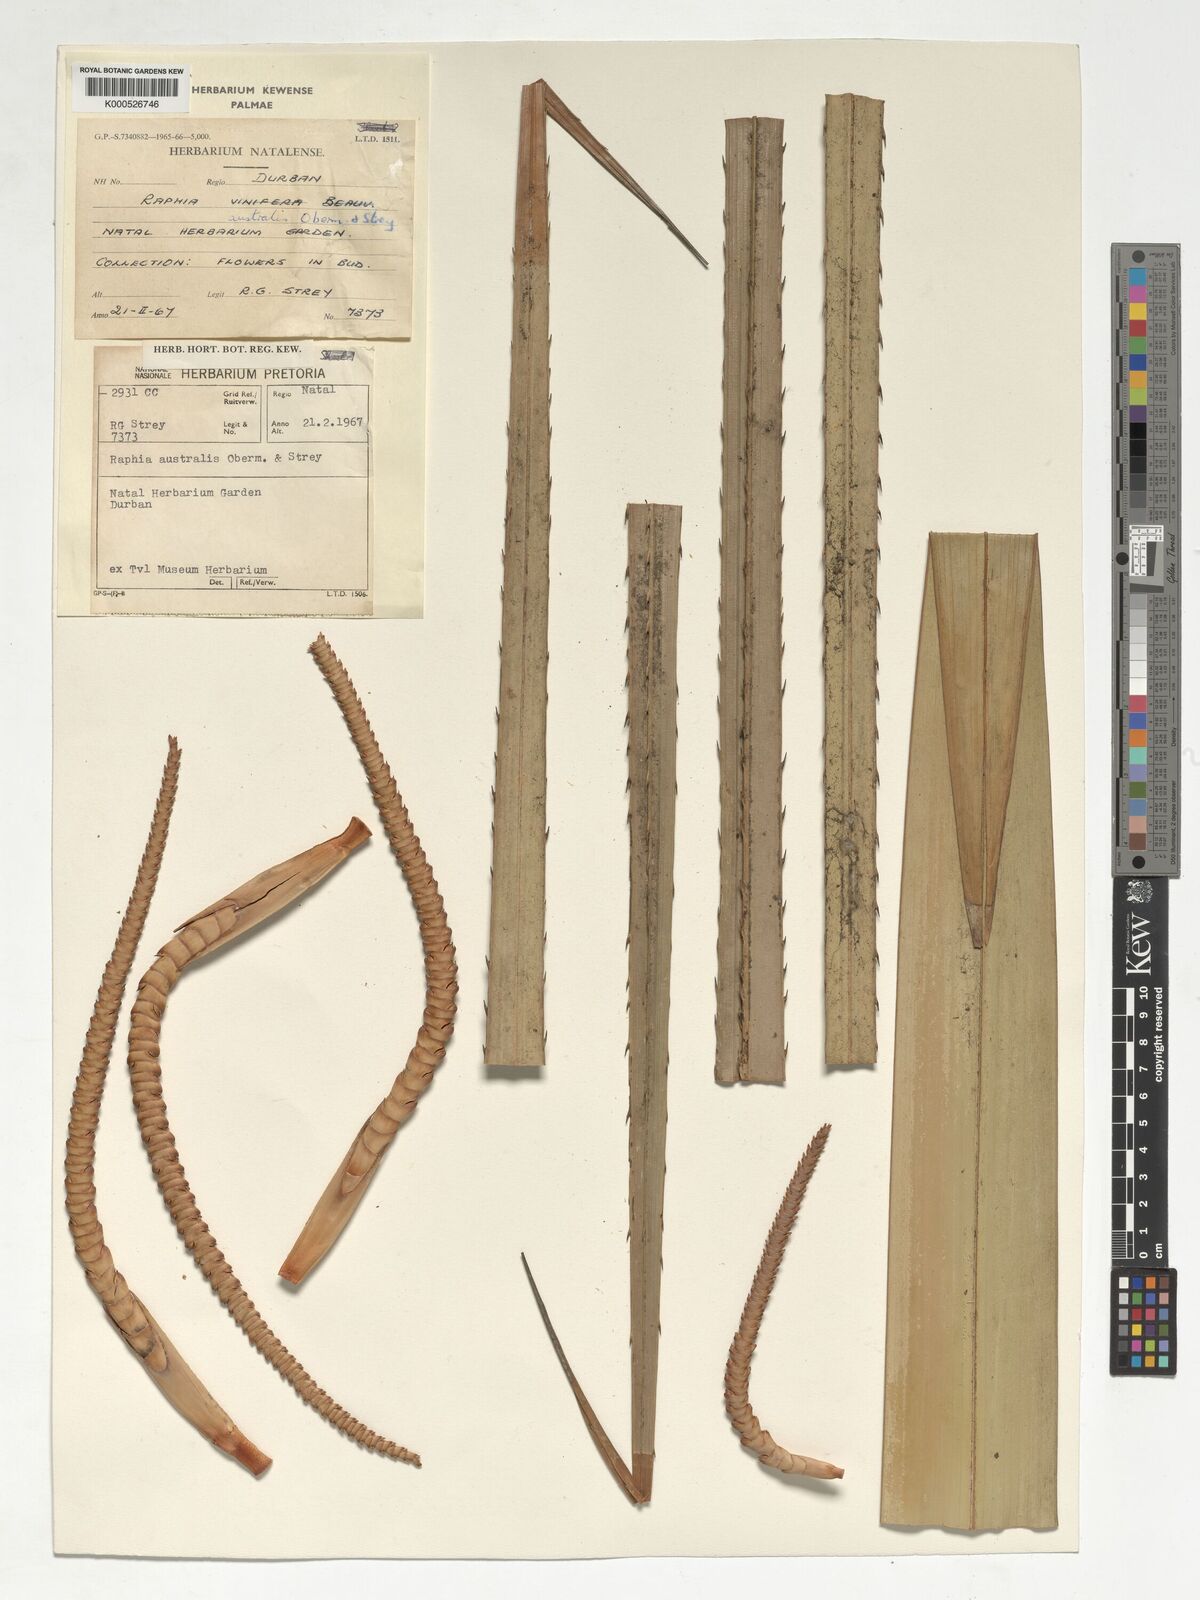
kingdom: Plantae
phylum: Tracheophyta
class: Liliopsida
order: Arecales
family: Arecaceae
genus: Raphia
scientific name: Raphia australis
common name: Giant palm
